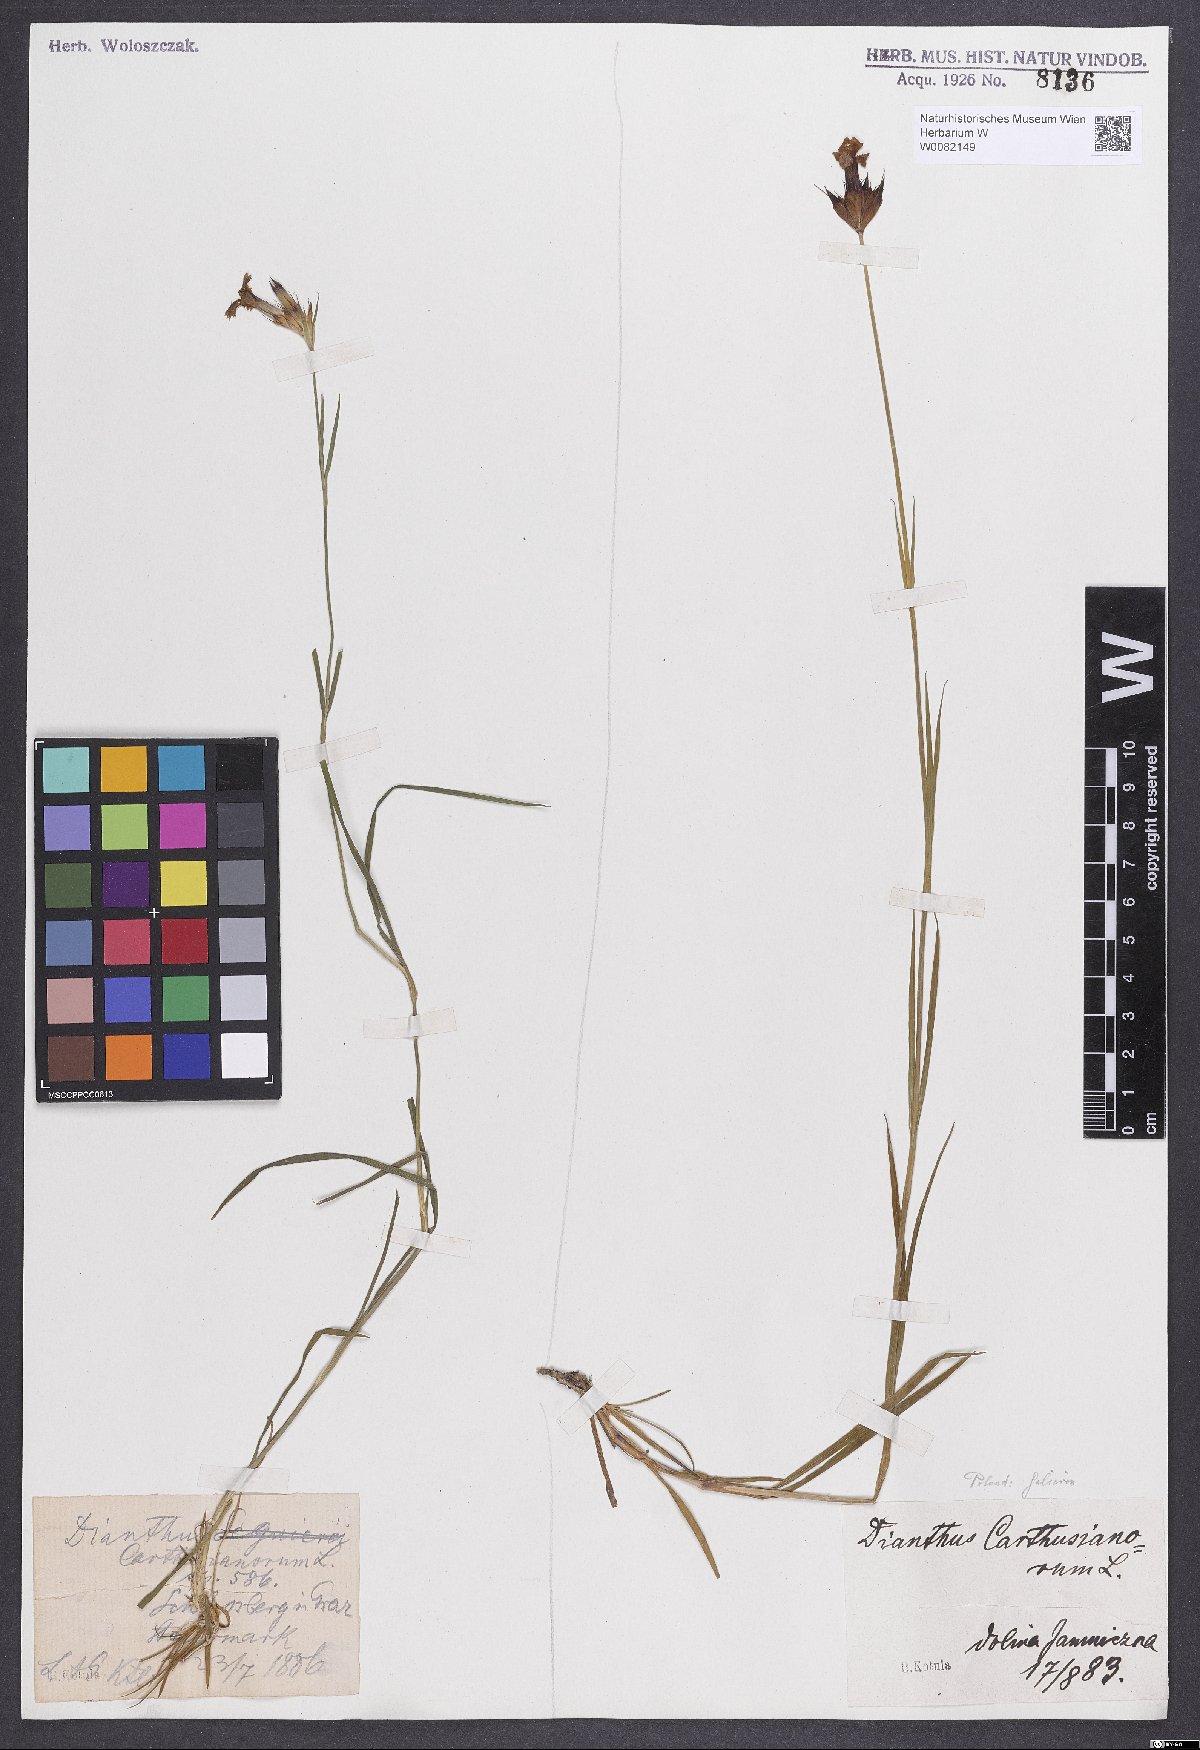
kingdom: Plantae
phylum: Tracheophyta
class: Magnoliopsida
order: Caryophyllales
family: Caryophyllaceae
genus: Dianthus
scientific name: Dianthus carthusianorum
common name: Carthusian pink
